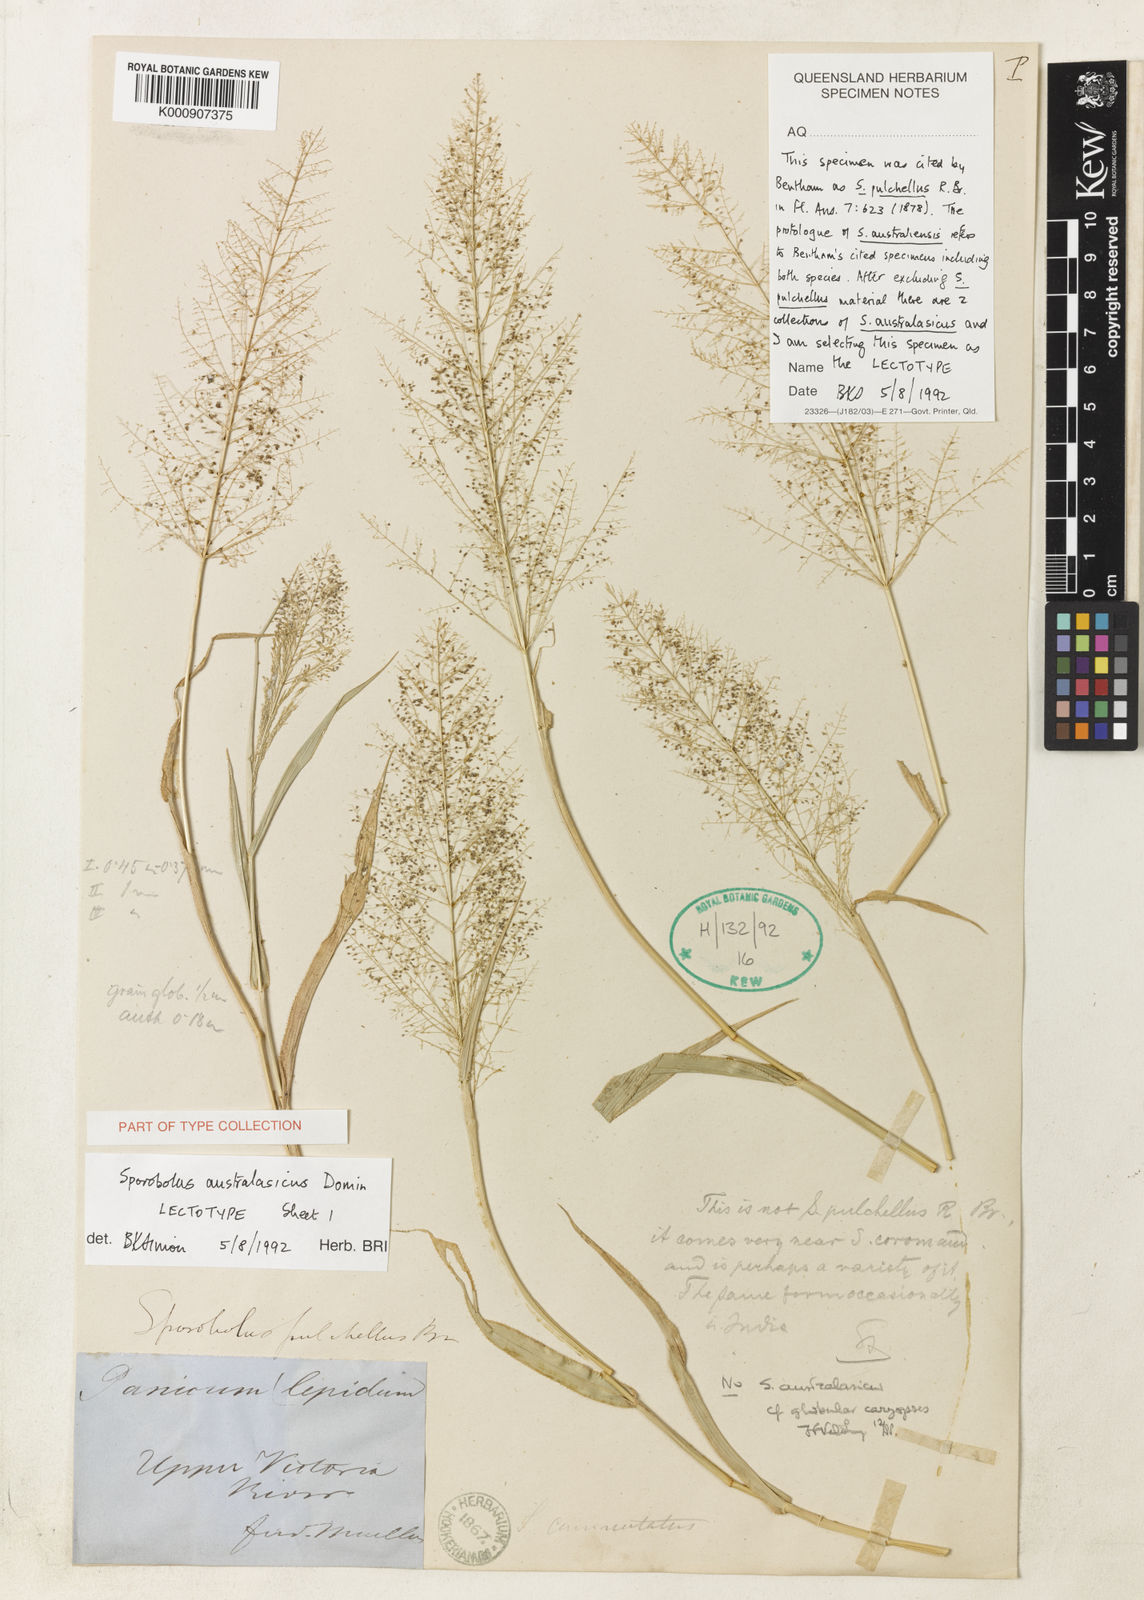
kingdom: Plantae
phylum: Tracheophyta
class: Liliopsida
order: Poales
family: Poaceae
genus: Sporobolus
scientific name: Sporobolus australasicus
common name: Australian dropseed
